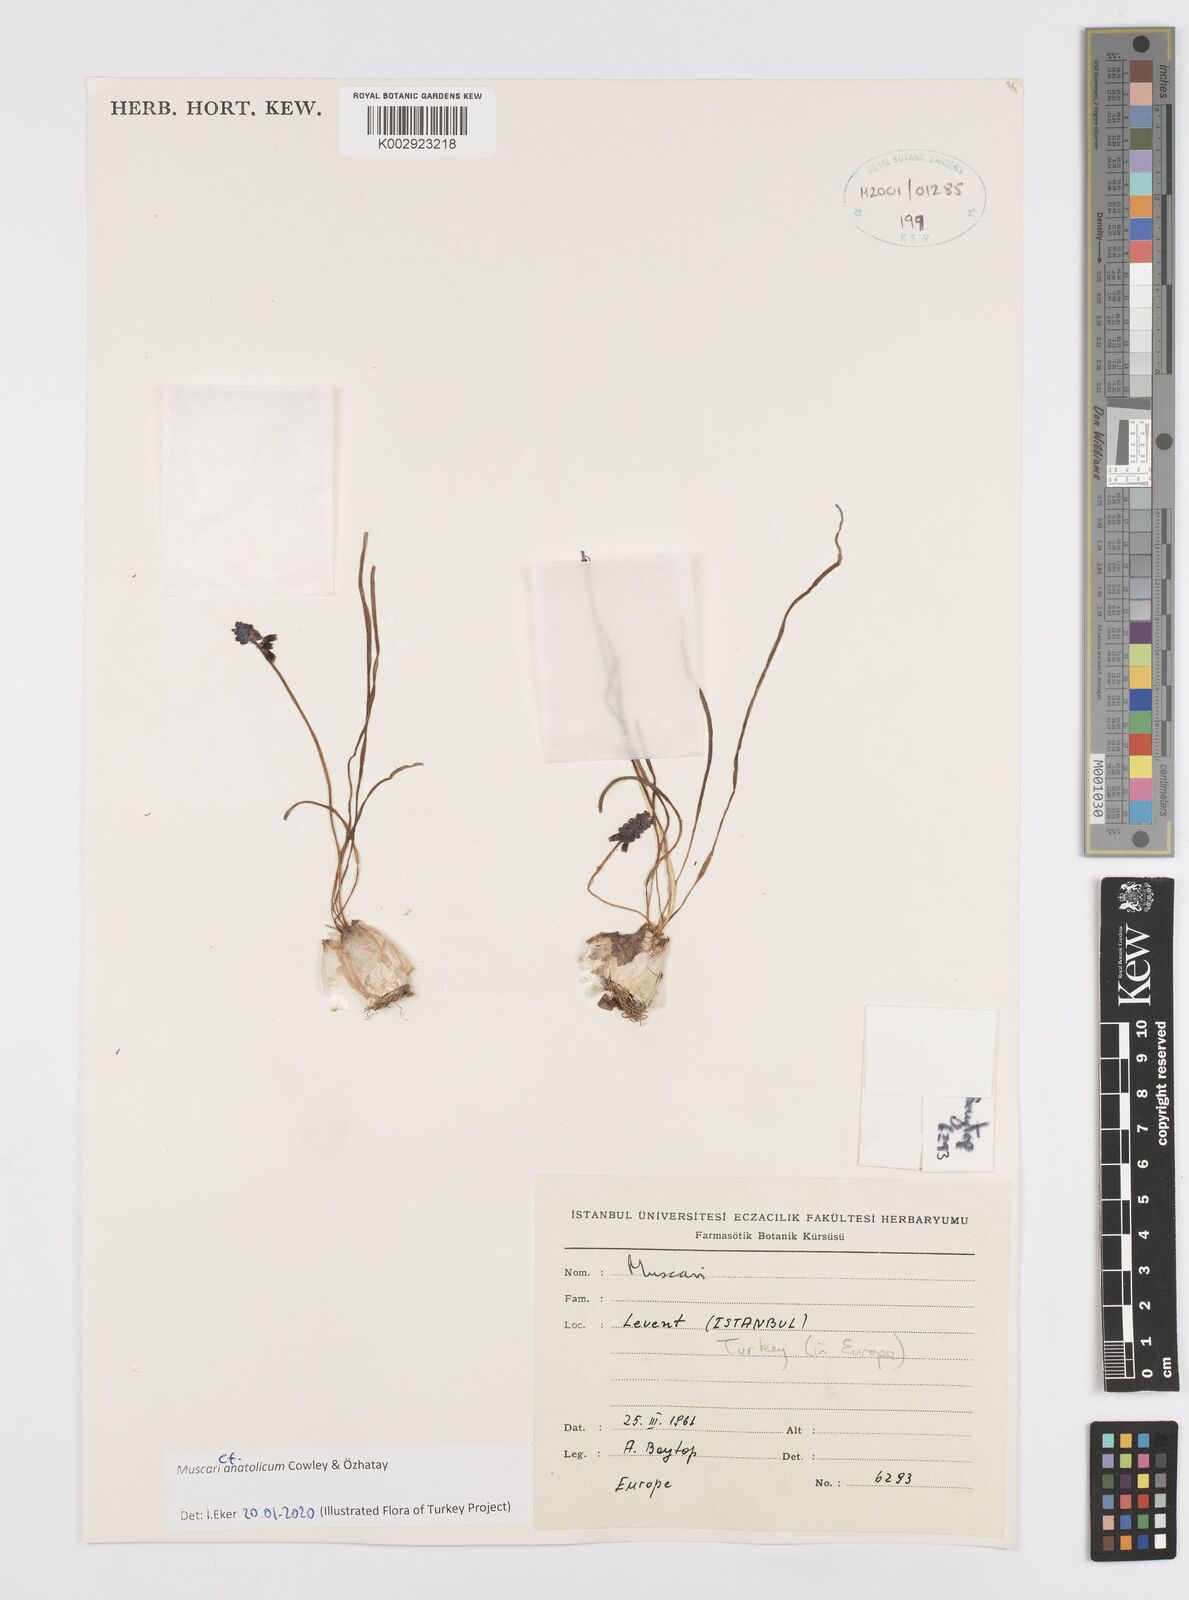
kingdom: Plantae
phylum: Tracheophyta
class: Liliopsida
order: Asparagales
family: Asparagaceae
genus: Muscari
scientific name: Muscari anatolicum
